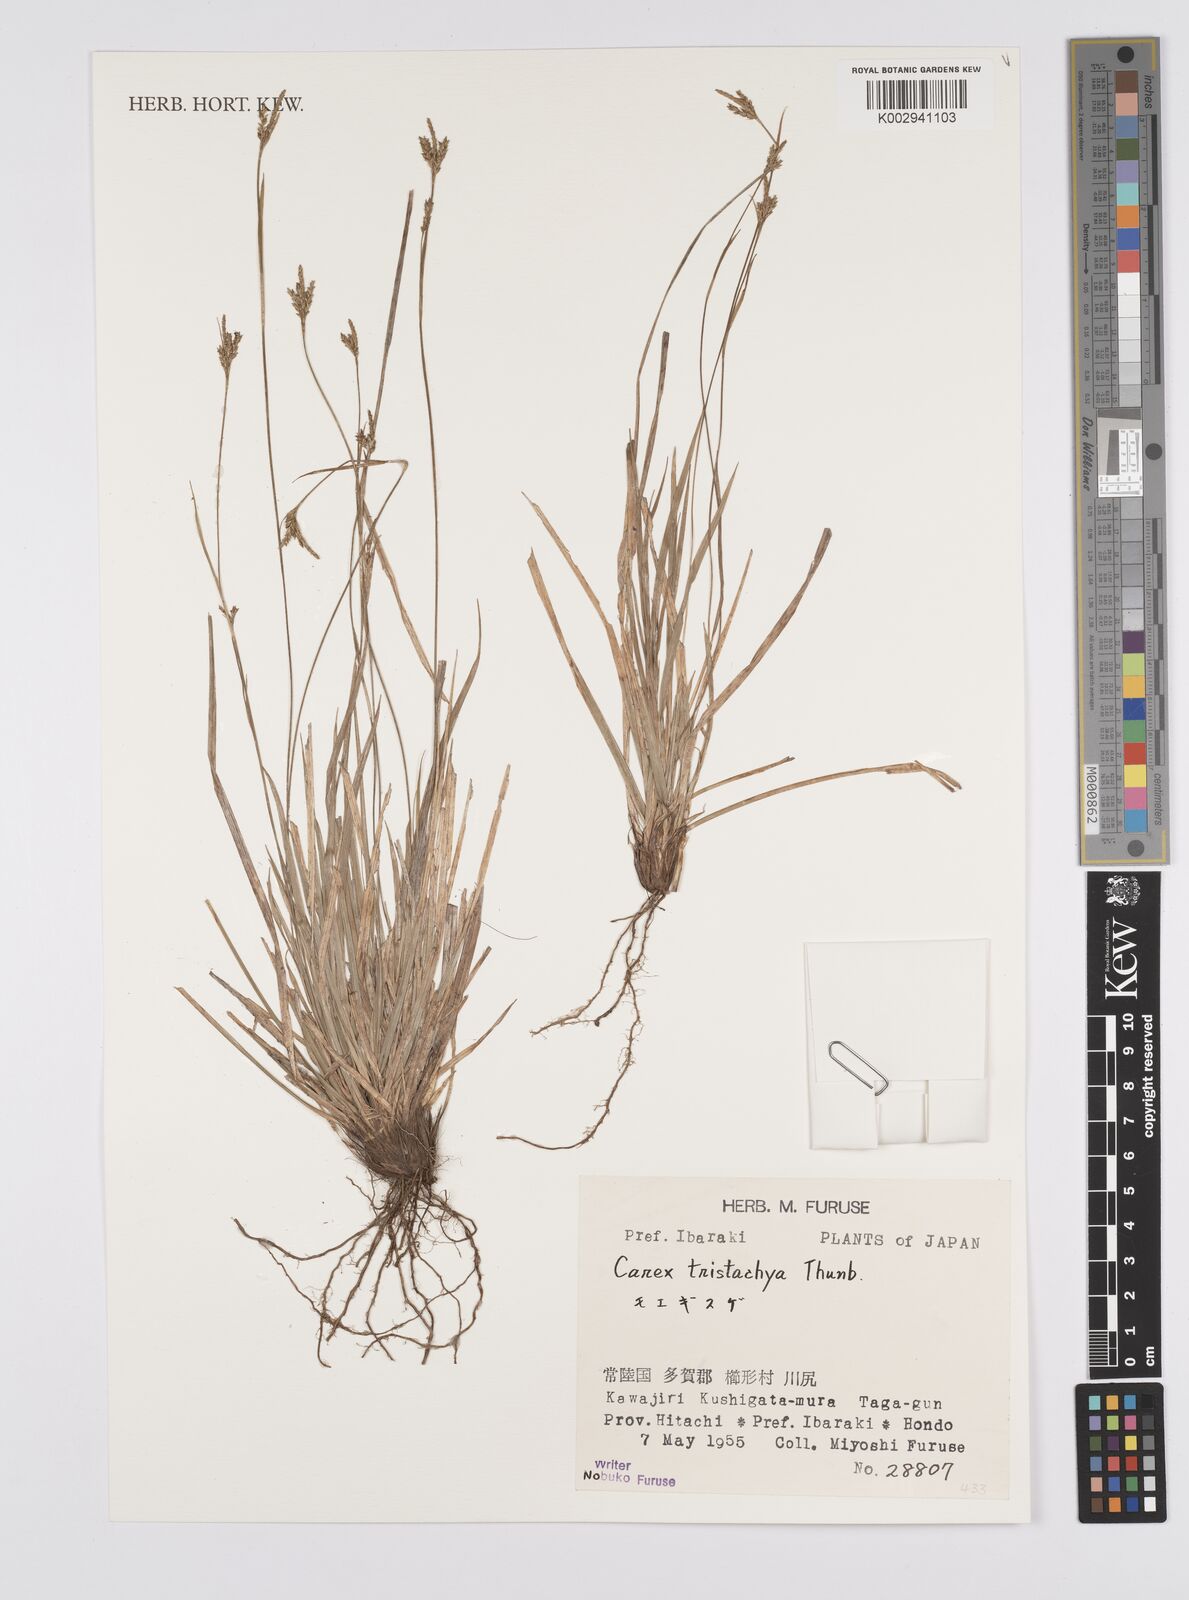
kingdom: Plantae
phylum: Tracheophyta
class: Liliopsida
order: Poales
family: Cyperaceae
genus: Carex
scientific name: Carex tristachya
